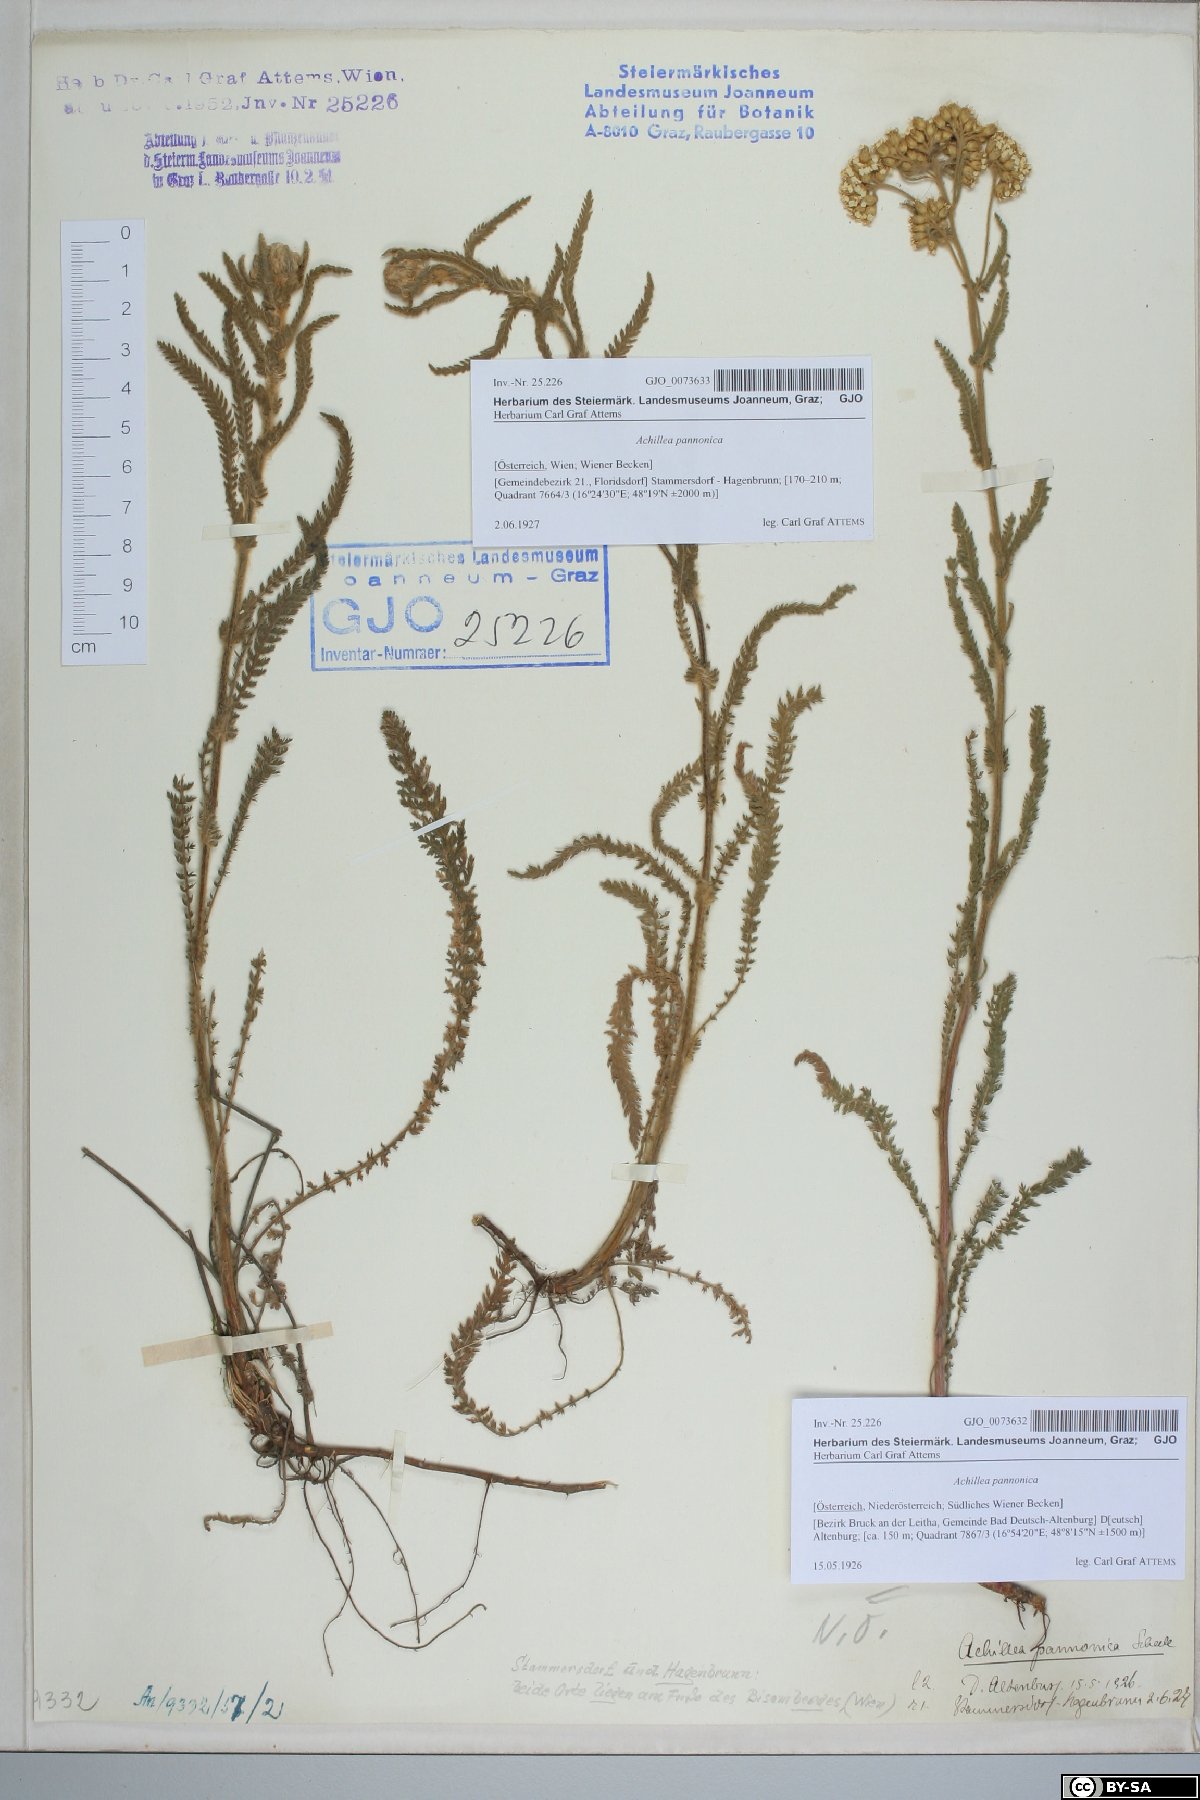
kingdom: Plantae
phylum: Tracheophyta
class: Magnoliopsida
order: Asterales
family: Asteraceae
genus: Achillea
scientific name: Achillea pannonica
